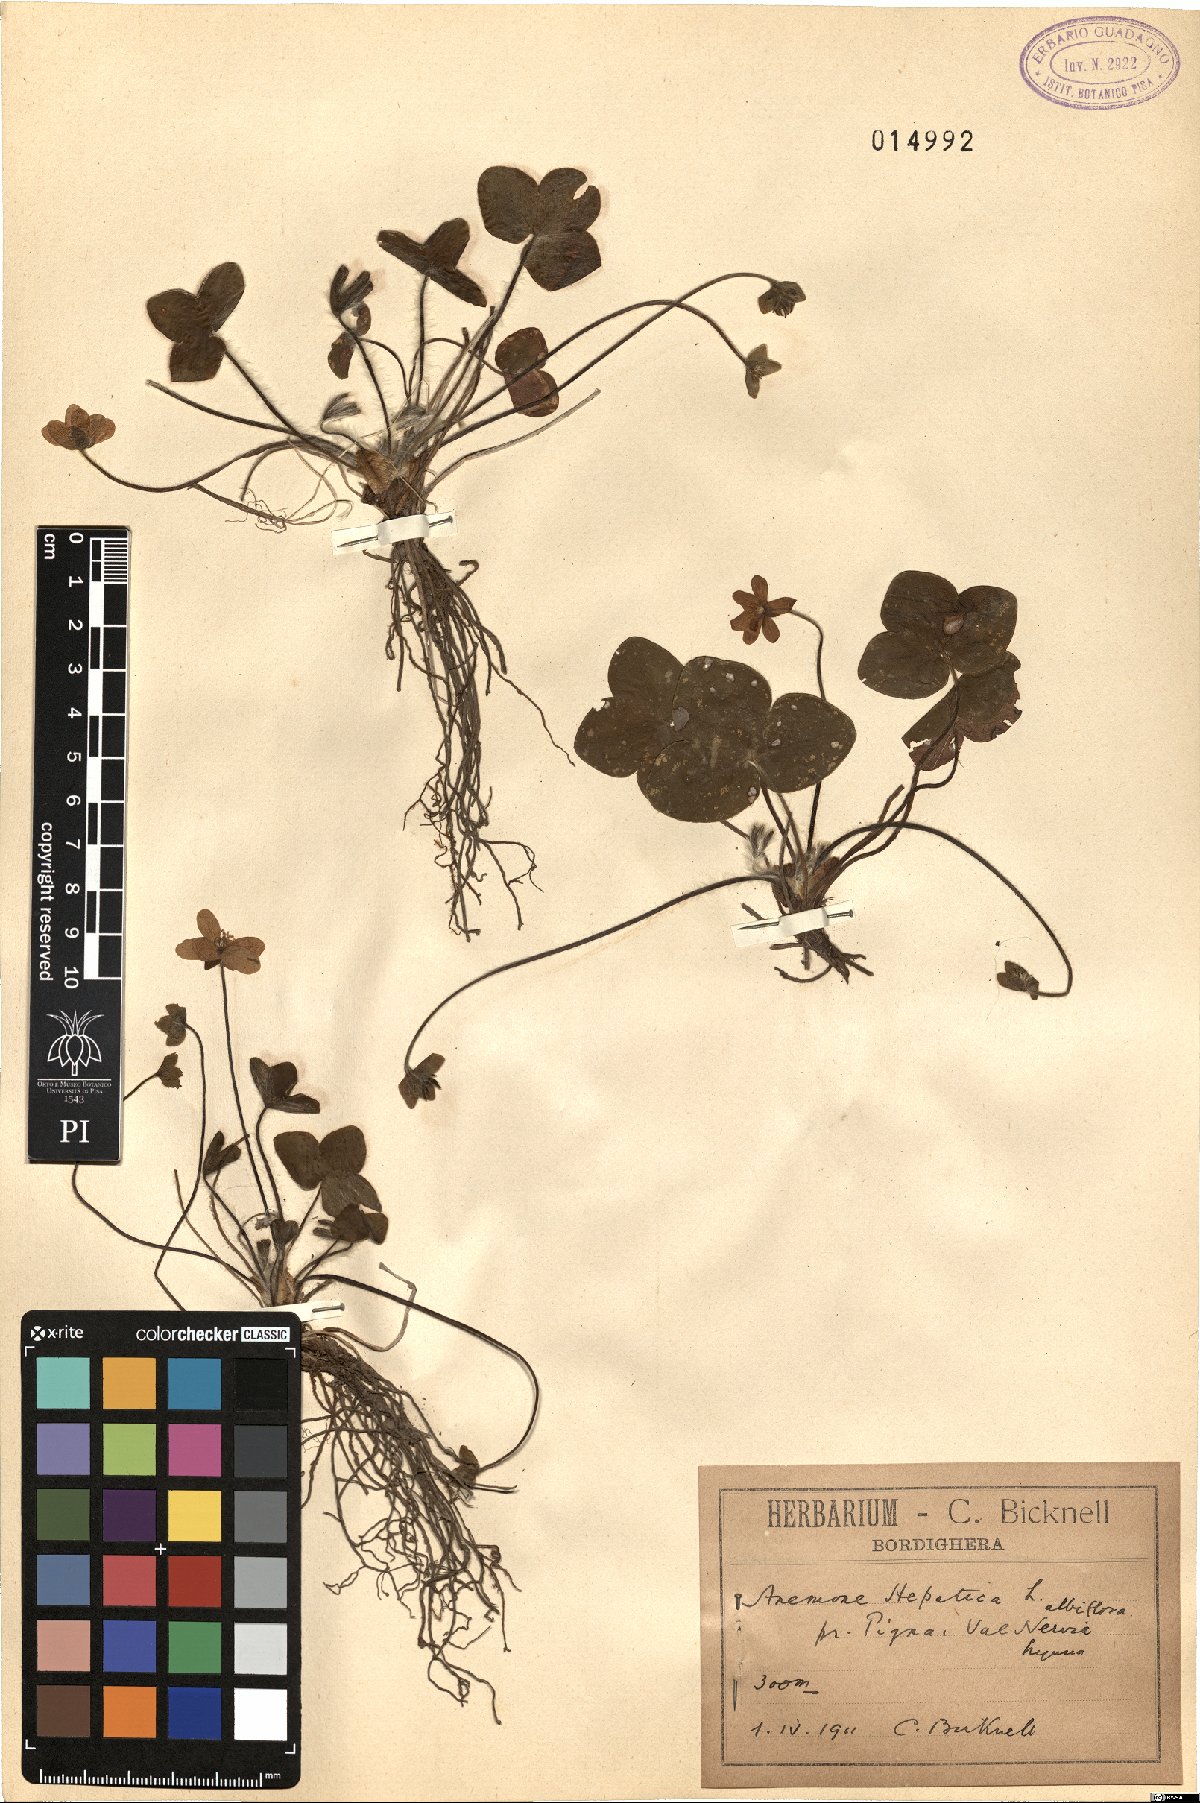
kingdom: Plantae
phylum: Tracheophyta
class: Magnoliopsida
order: Ranunculales
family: Ranunculaceae
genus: Hepatica
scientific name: Hepatica nobilis
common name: Liverleaf
